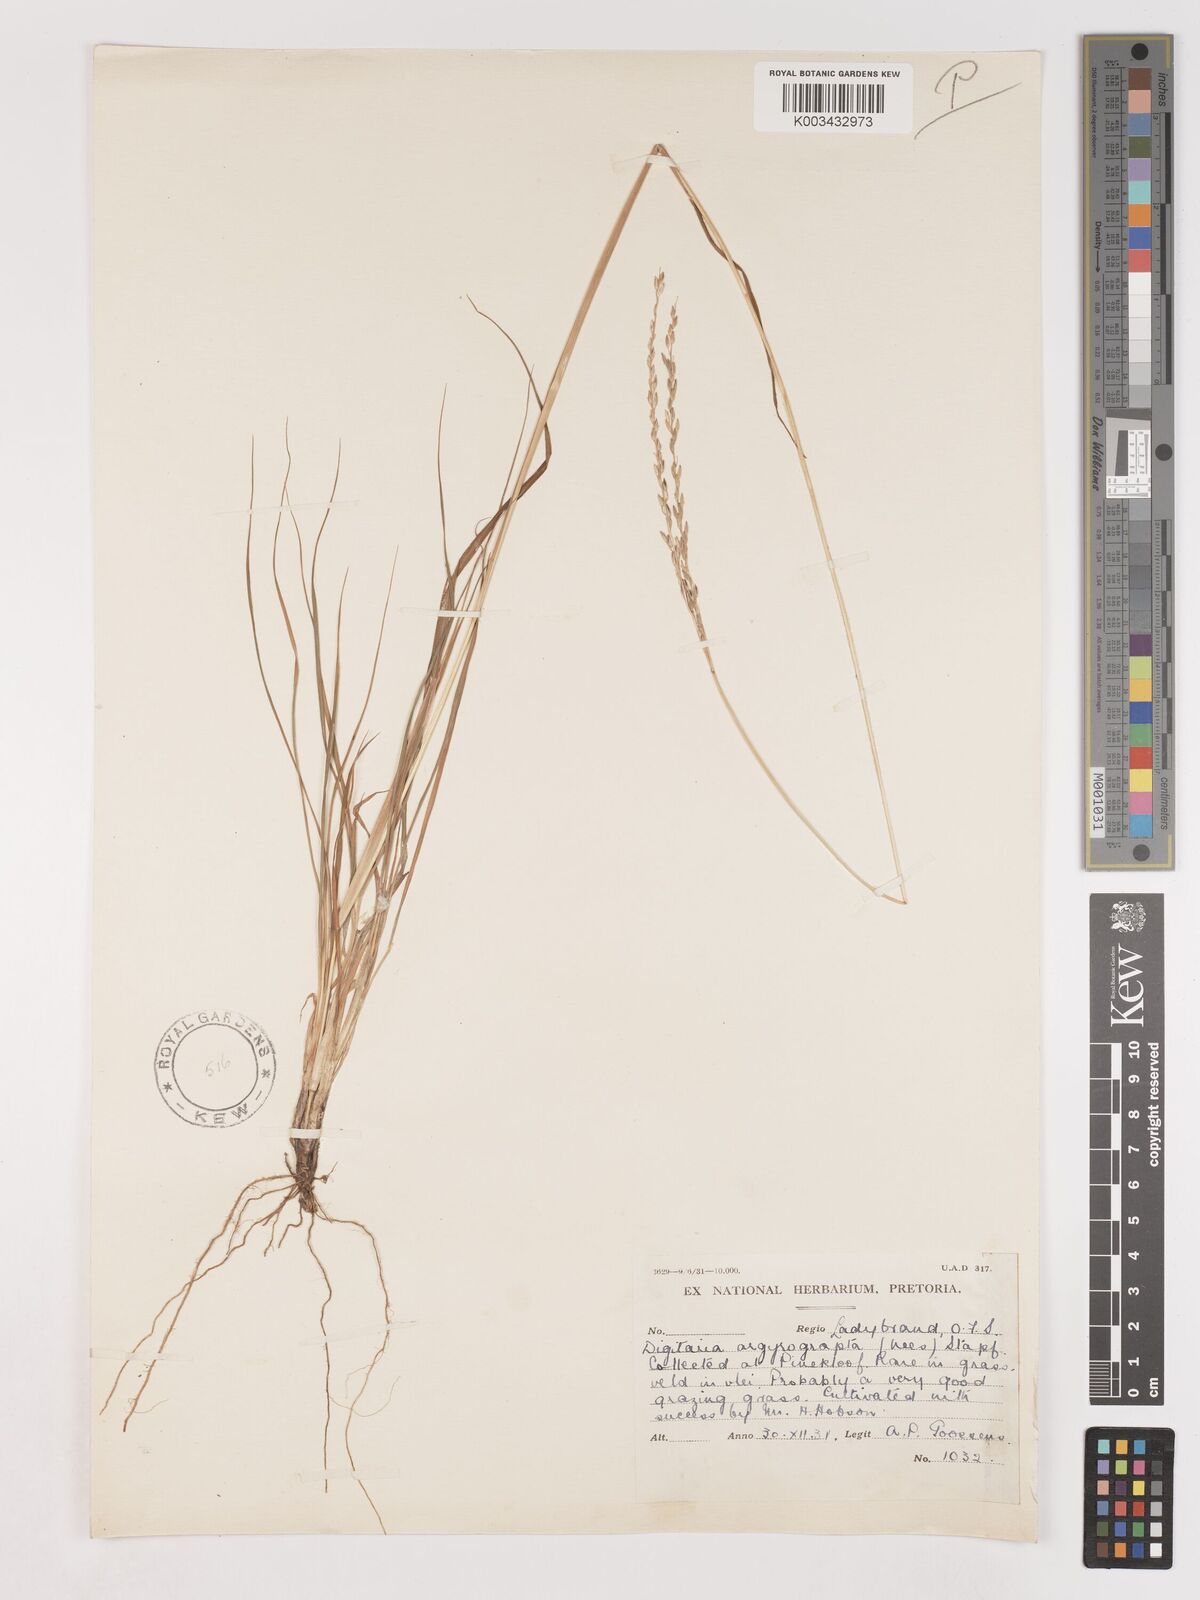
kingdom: Plantae
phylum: Tracheophyta
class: Liliopsida
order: Poales
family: Poaceae
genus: Digitaria
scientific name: Digitaria argyrograpta
